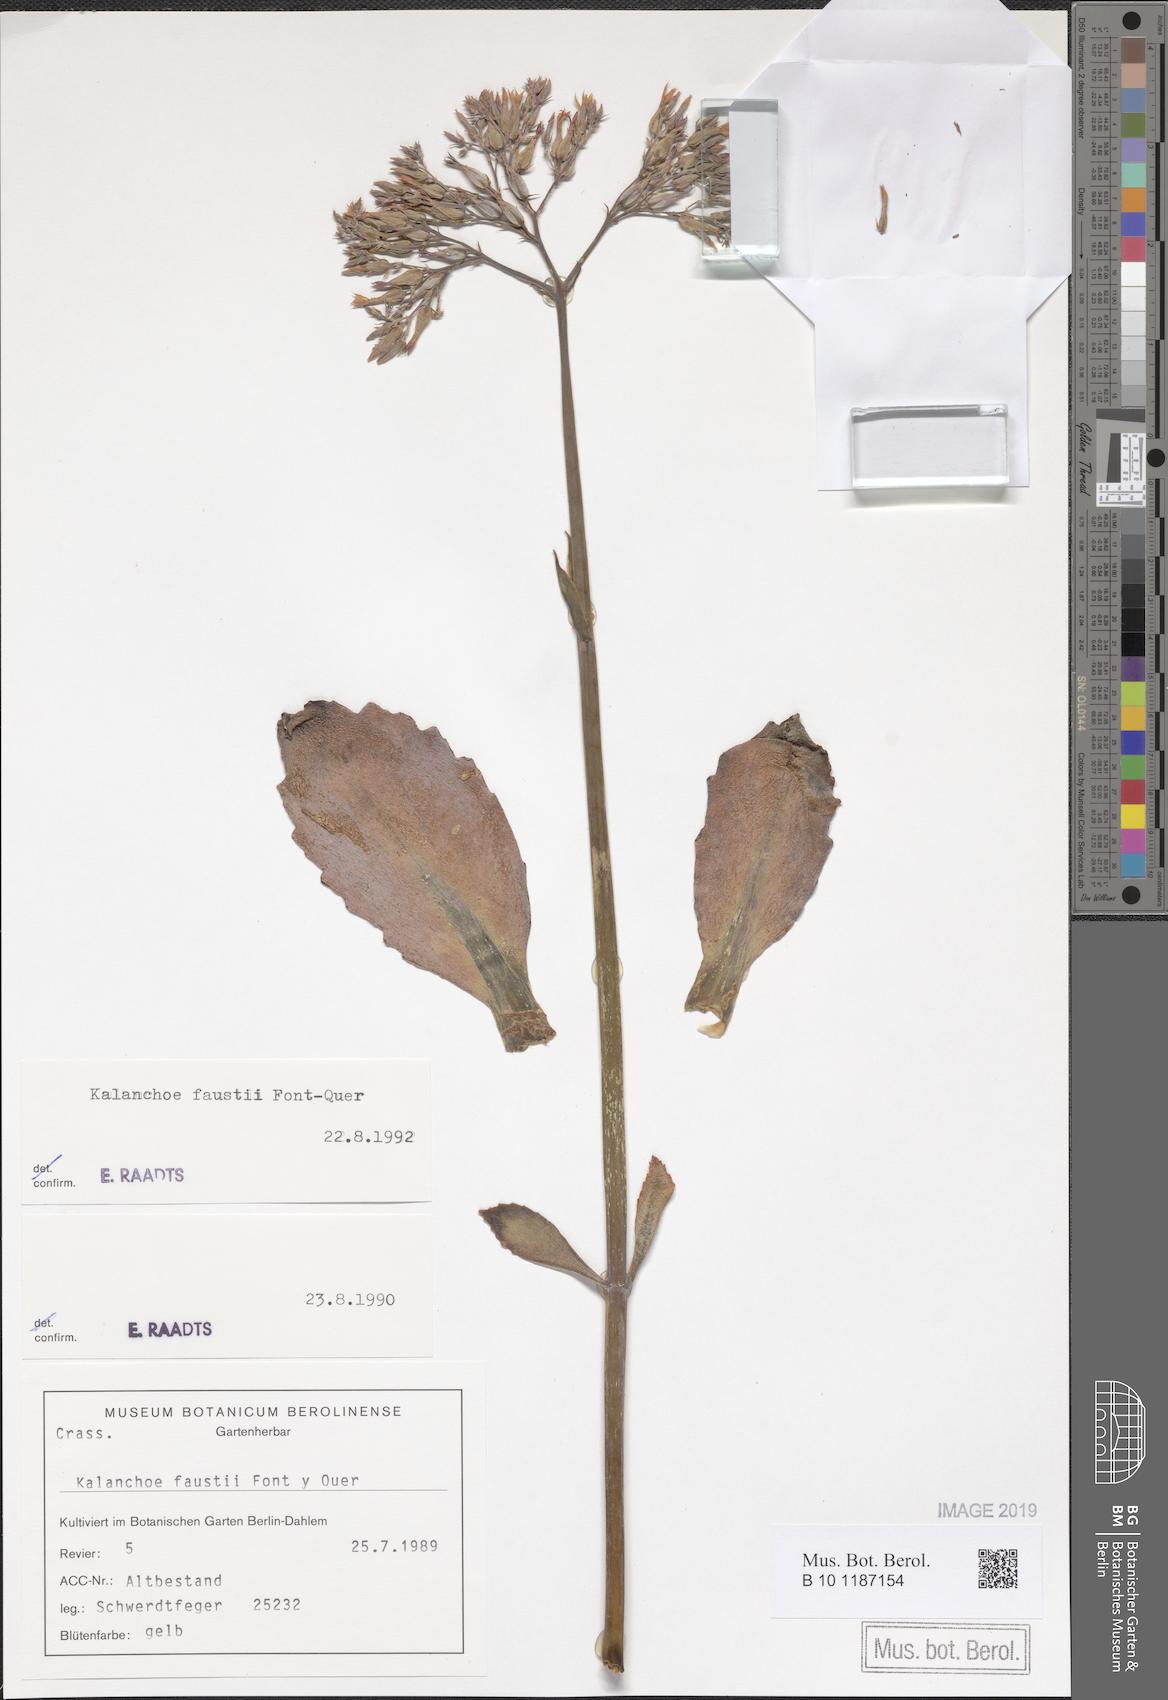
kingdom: Plantae
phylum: Tracheophyta
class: Magnoliopsida
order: Saxifragales
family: Crassulaceae
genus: Kalanchoe
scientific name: Kalanchoe faustii
